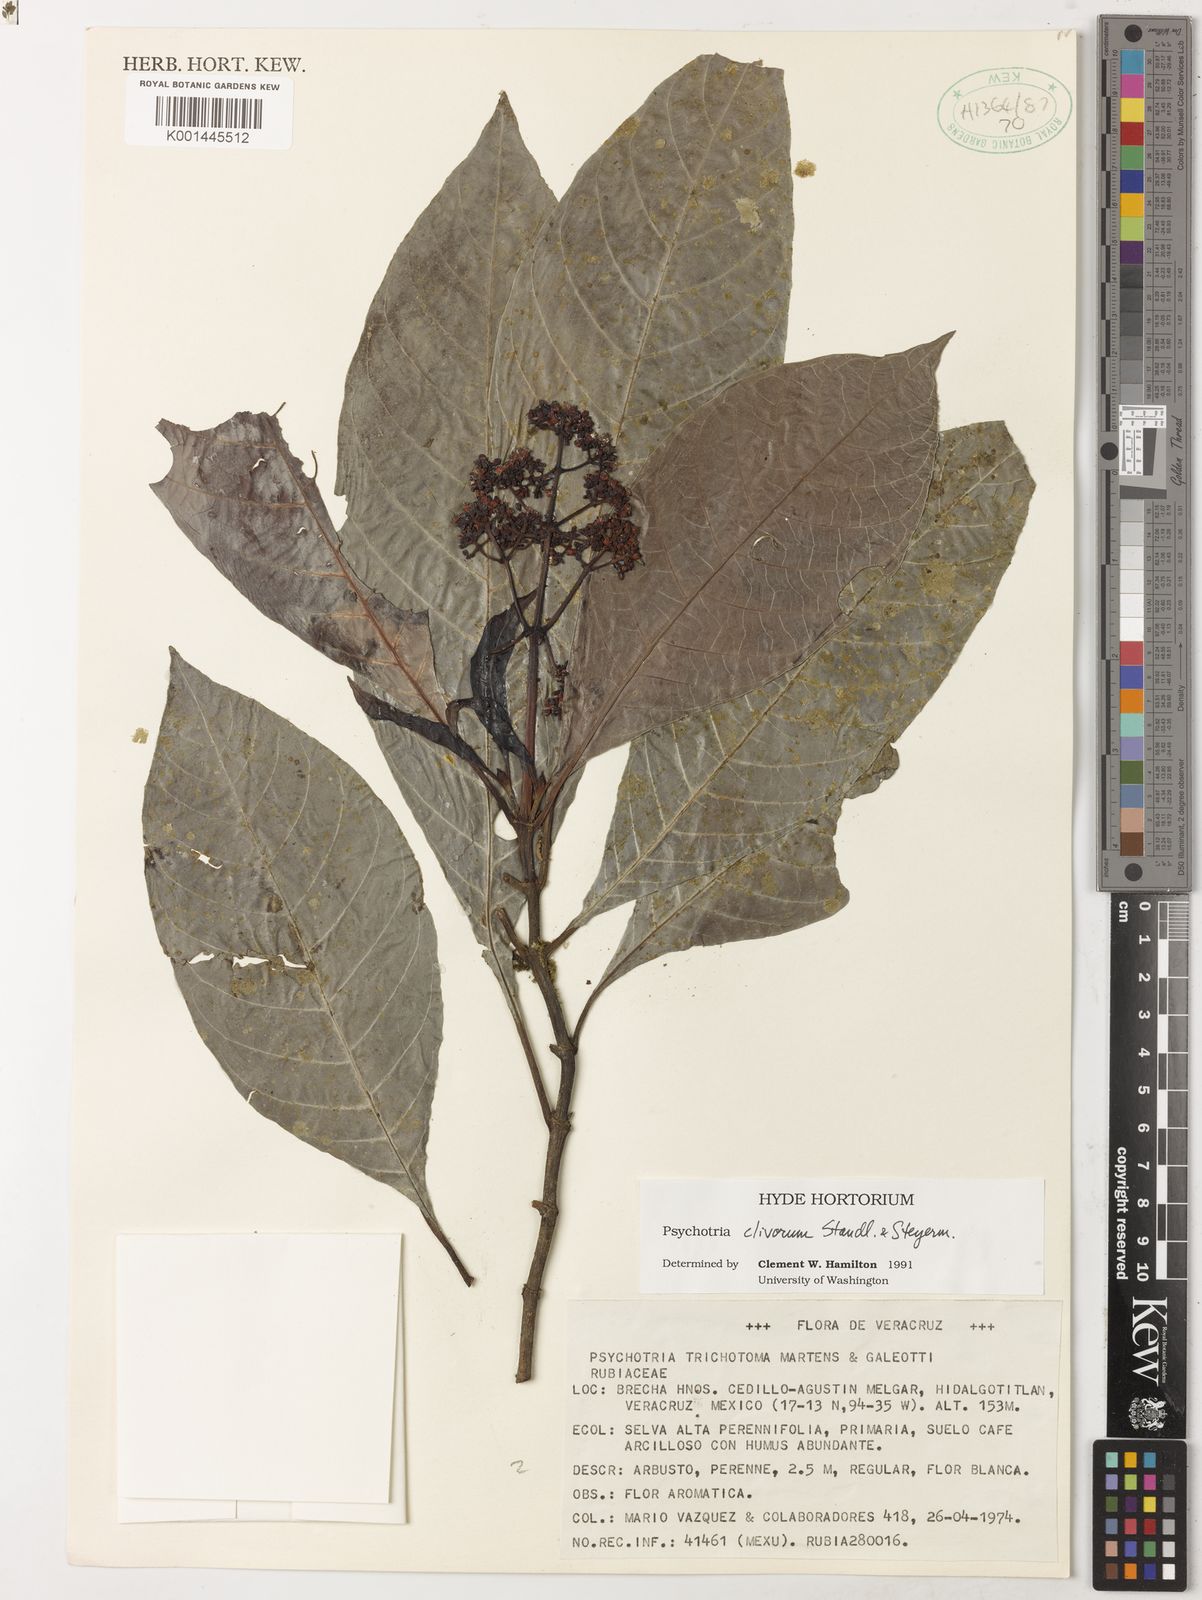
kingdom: Plantae
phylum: Tracheophyta
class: Magnoliopsida
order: Gentianales
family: Rubiaceae
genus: Psychotria
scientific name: Psychotria clivorum
